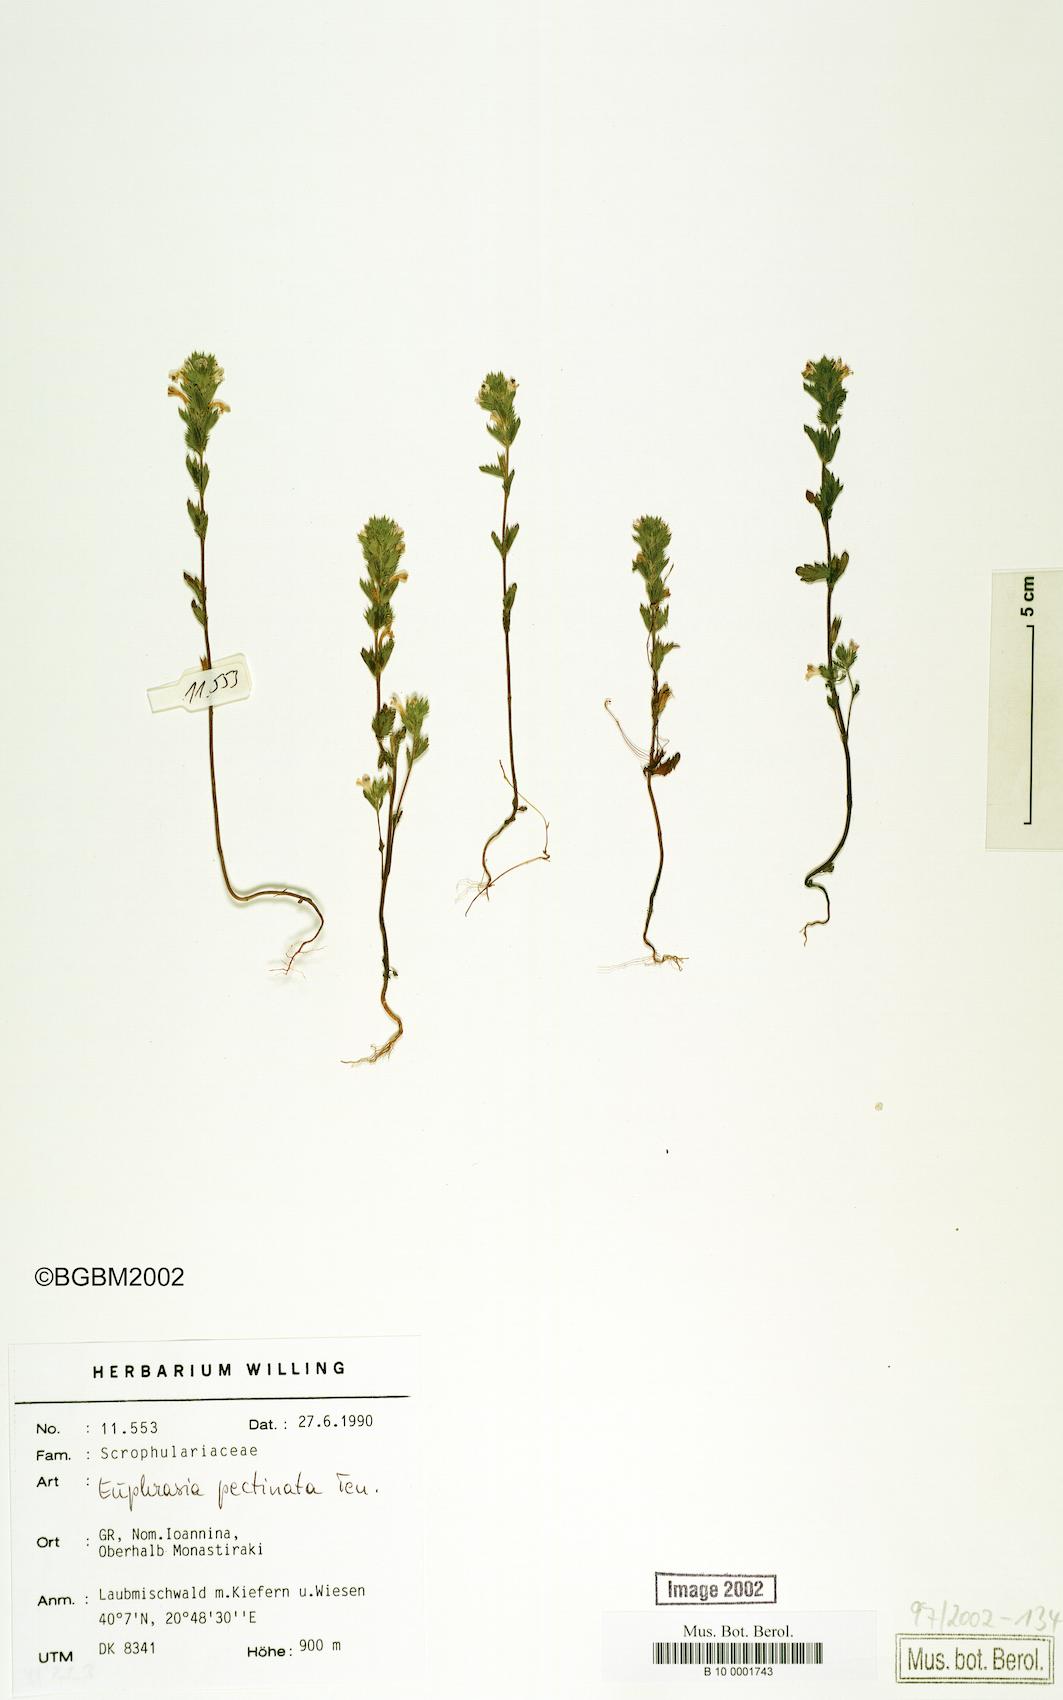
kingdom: Plantae
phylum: Tracheophyta
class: Magnoliopsida
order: Lamiales
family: Orobanchaceae
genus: Euphrasia
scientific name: Euphrasia pectinata
